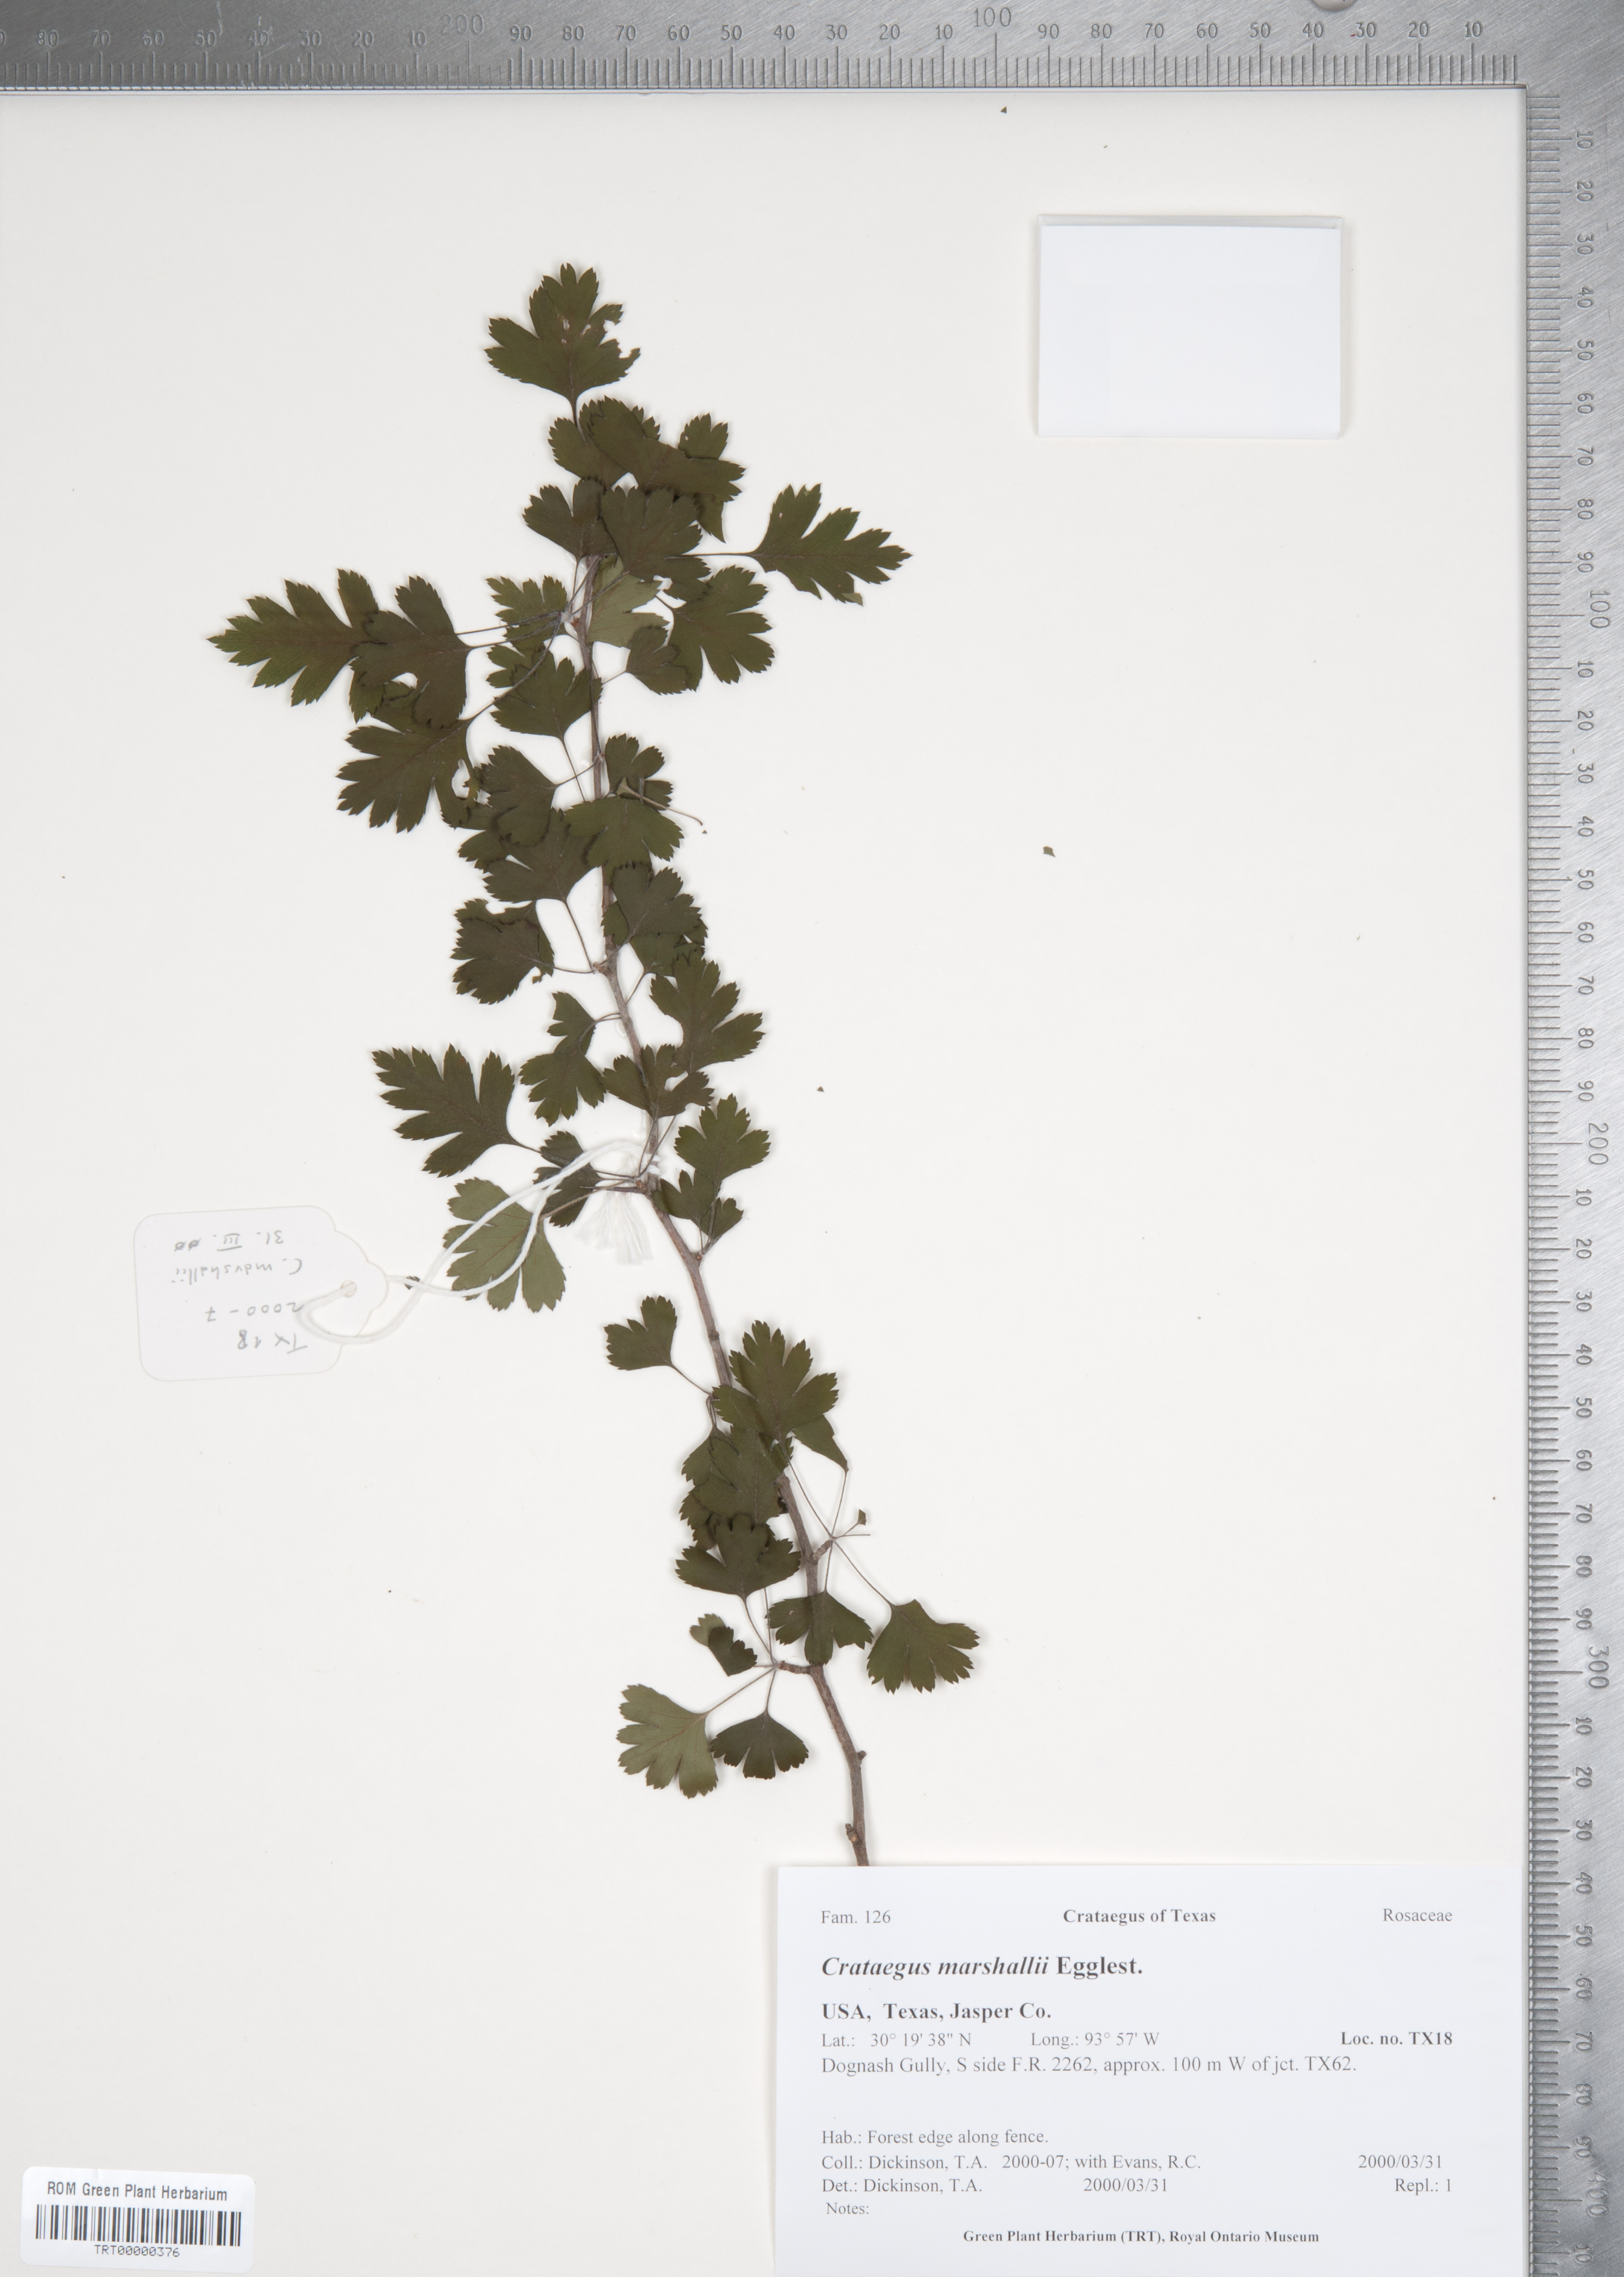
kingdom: Plantae
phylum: Tracheophyta
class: Magnoliopsida
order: Rosales
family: Rosaceae
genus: Crataegus
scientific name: Crataegus marshallii
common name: Parsley-hawthorn
